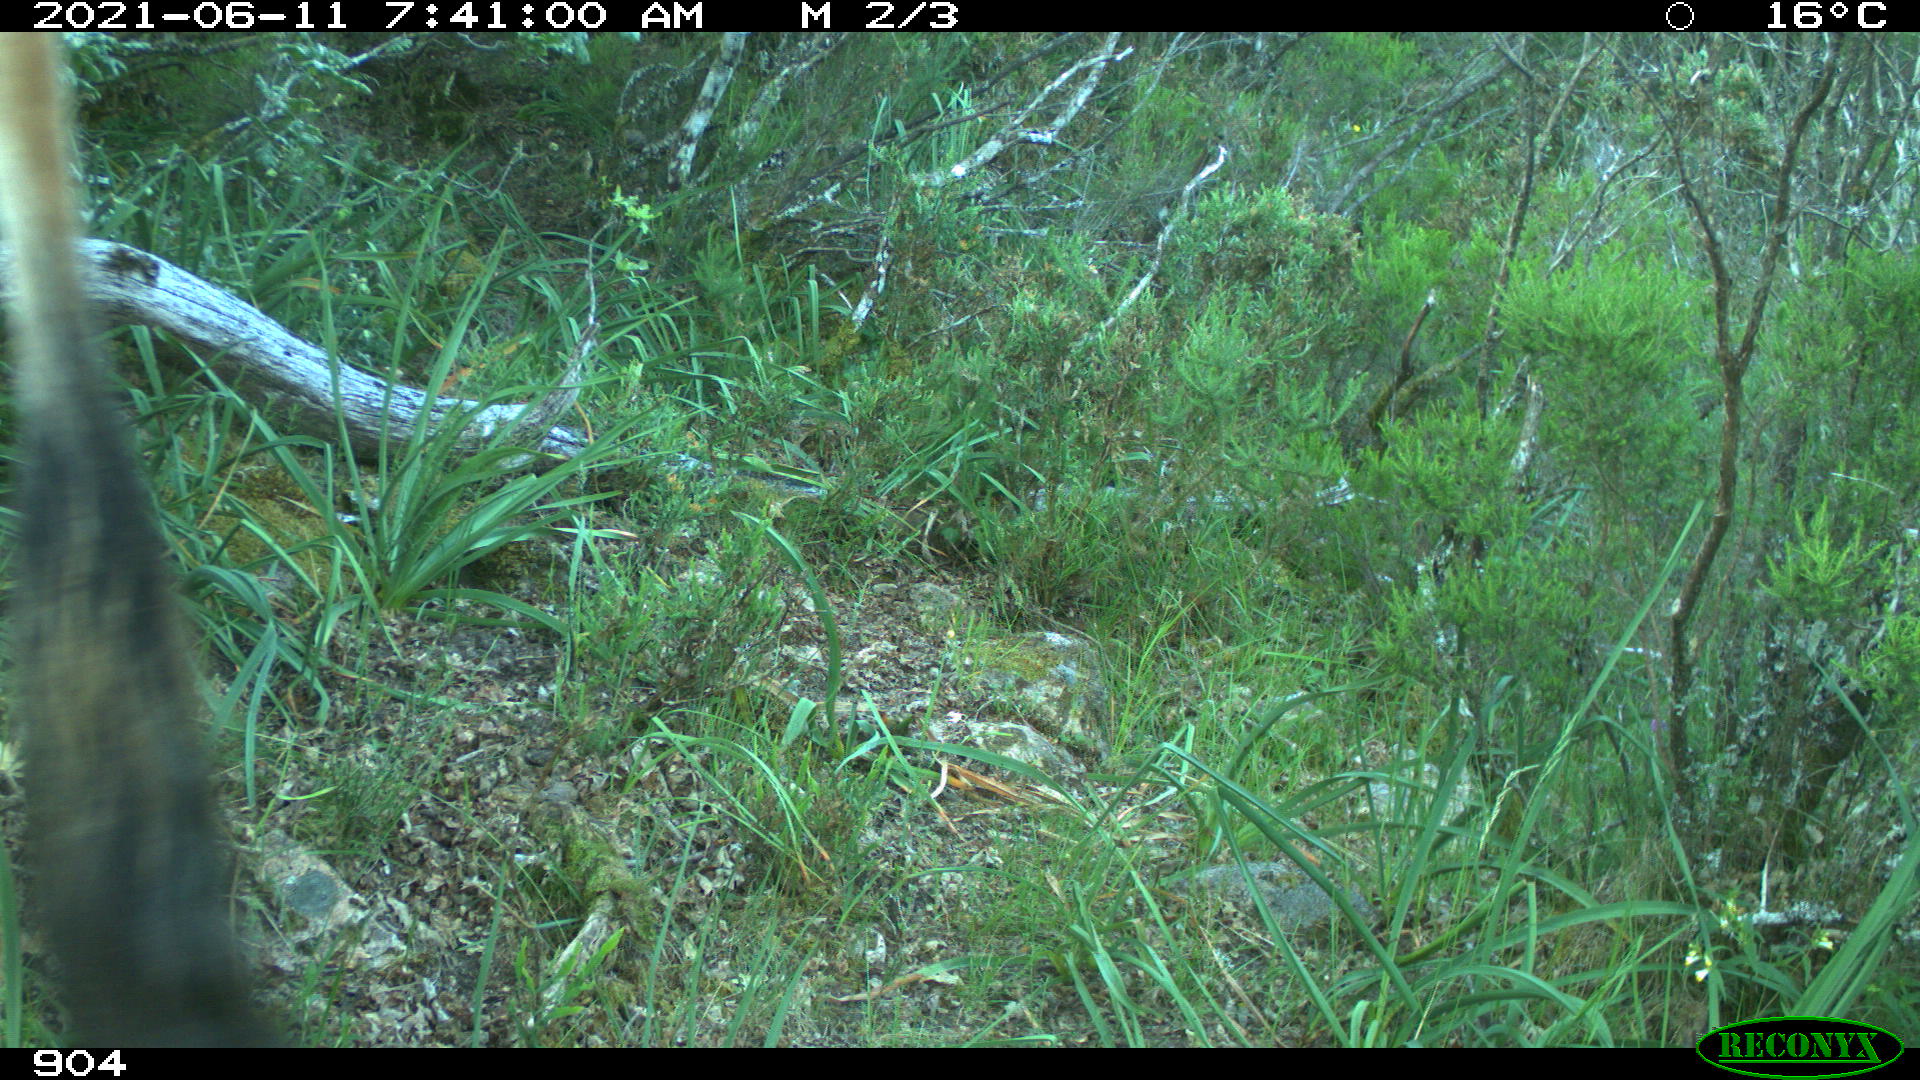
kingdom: Animalia
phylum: Chordata
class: Mammalia
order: Artiodactyla
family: Bovidae
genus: Bos
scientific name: Bos taurus
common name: Domesticated cattle
